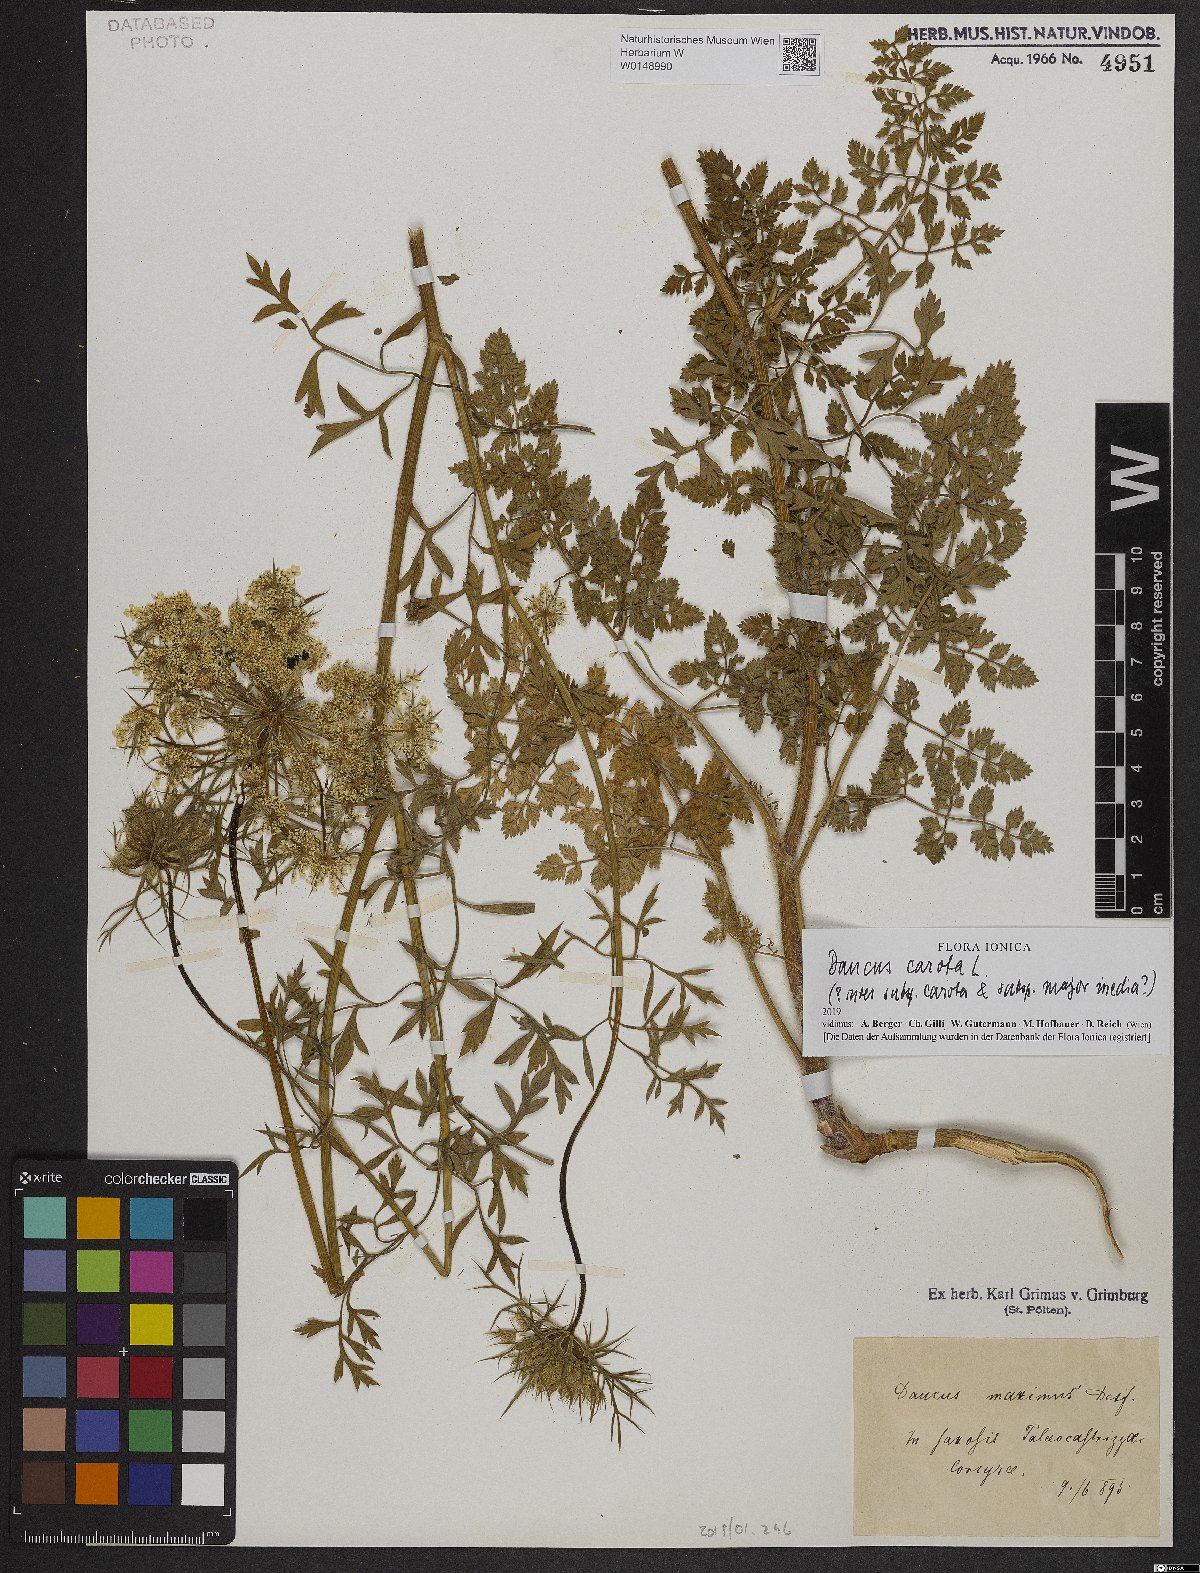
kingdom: Plantae
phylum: Tracheophyta
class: Magnoliopsida
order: Apiales
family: Apiaceae
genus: Daucus
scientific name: Daucus carota
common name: Wild carrot
